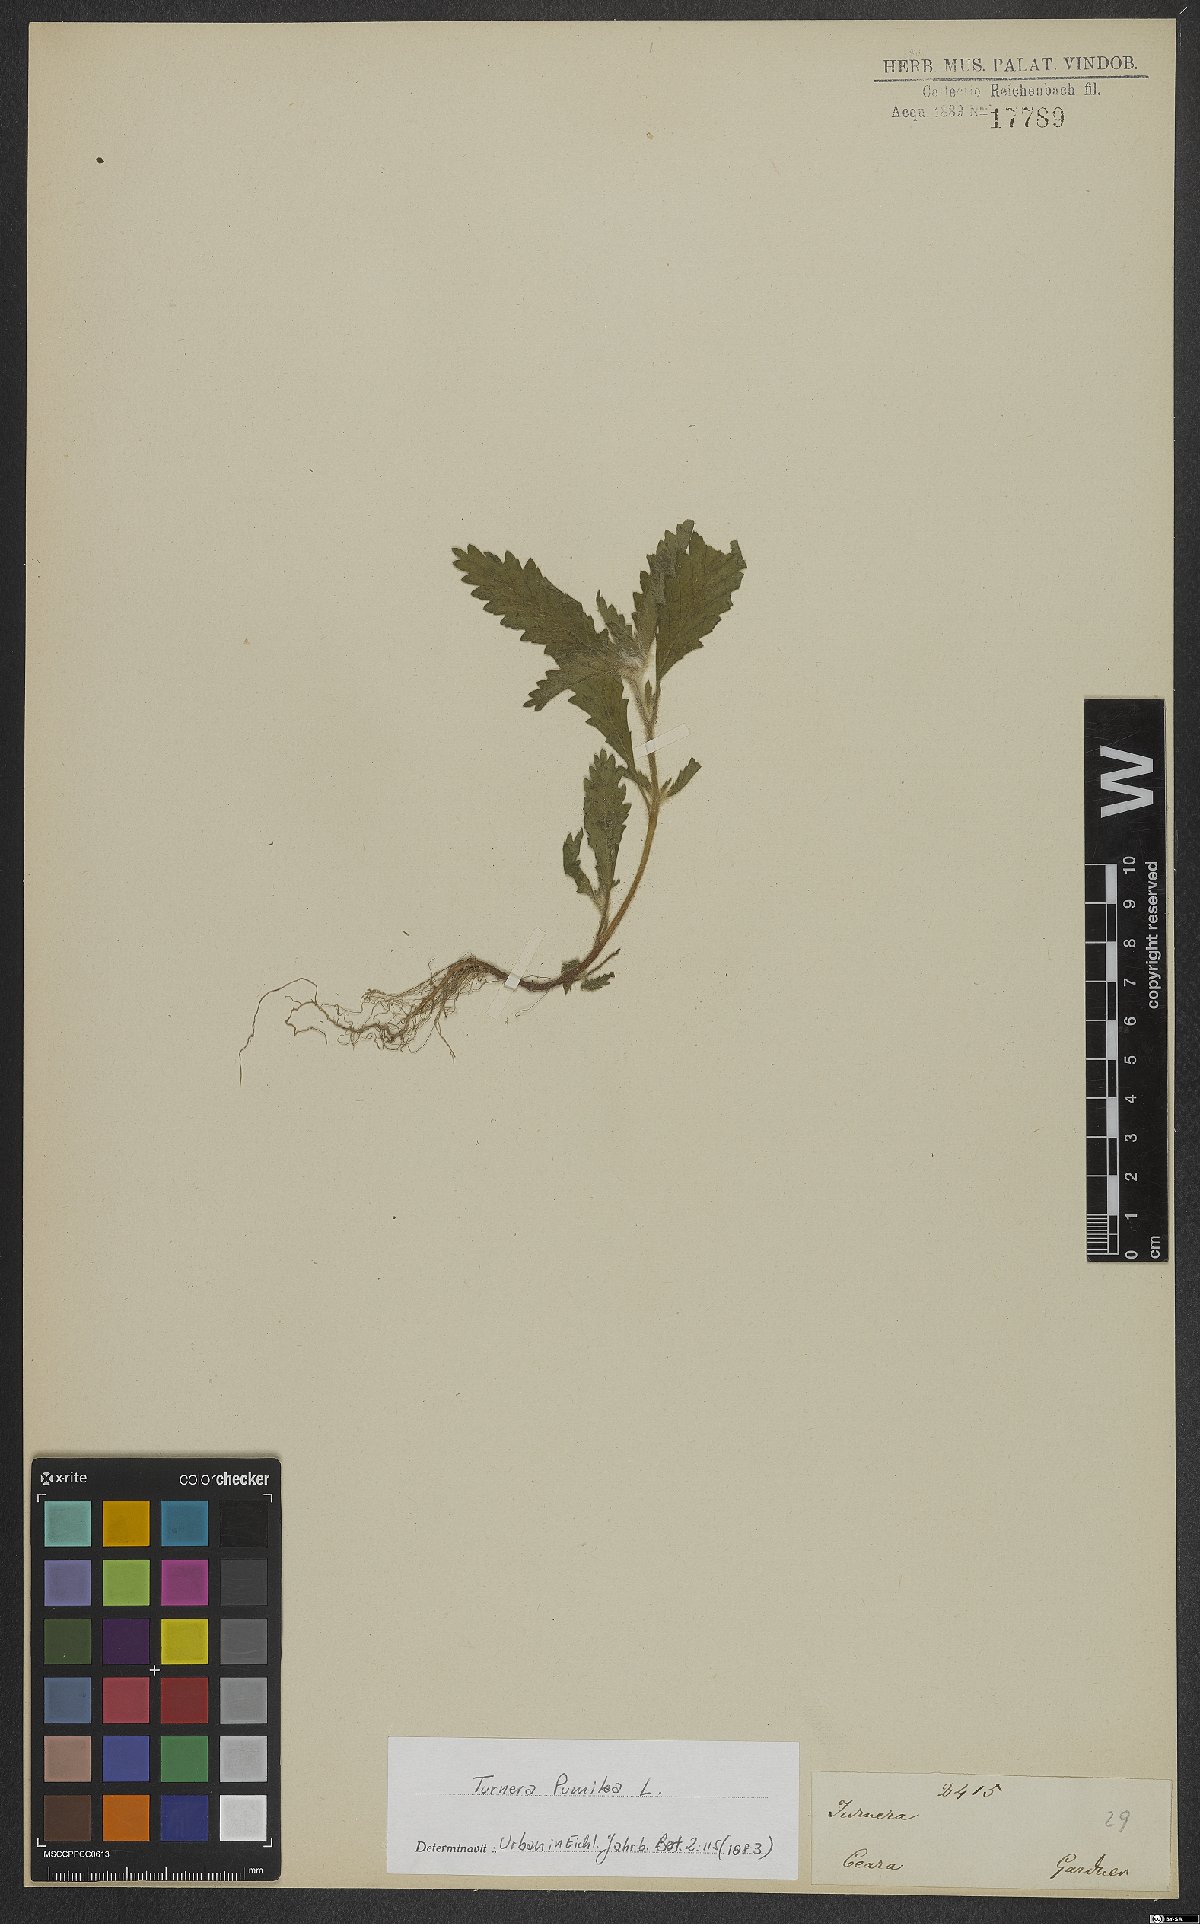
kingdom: Plantae
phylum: Tracheophyta
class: Magnoliopsida
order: Malpighiales
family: Turneraceae
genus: Turnera
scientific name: Turnera pumilea
